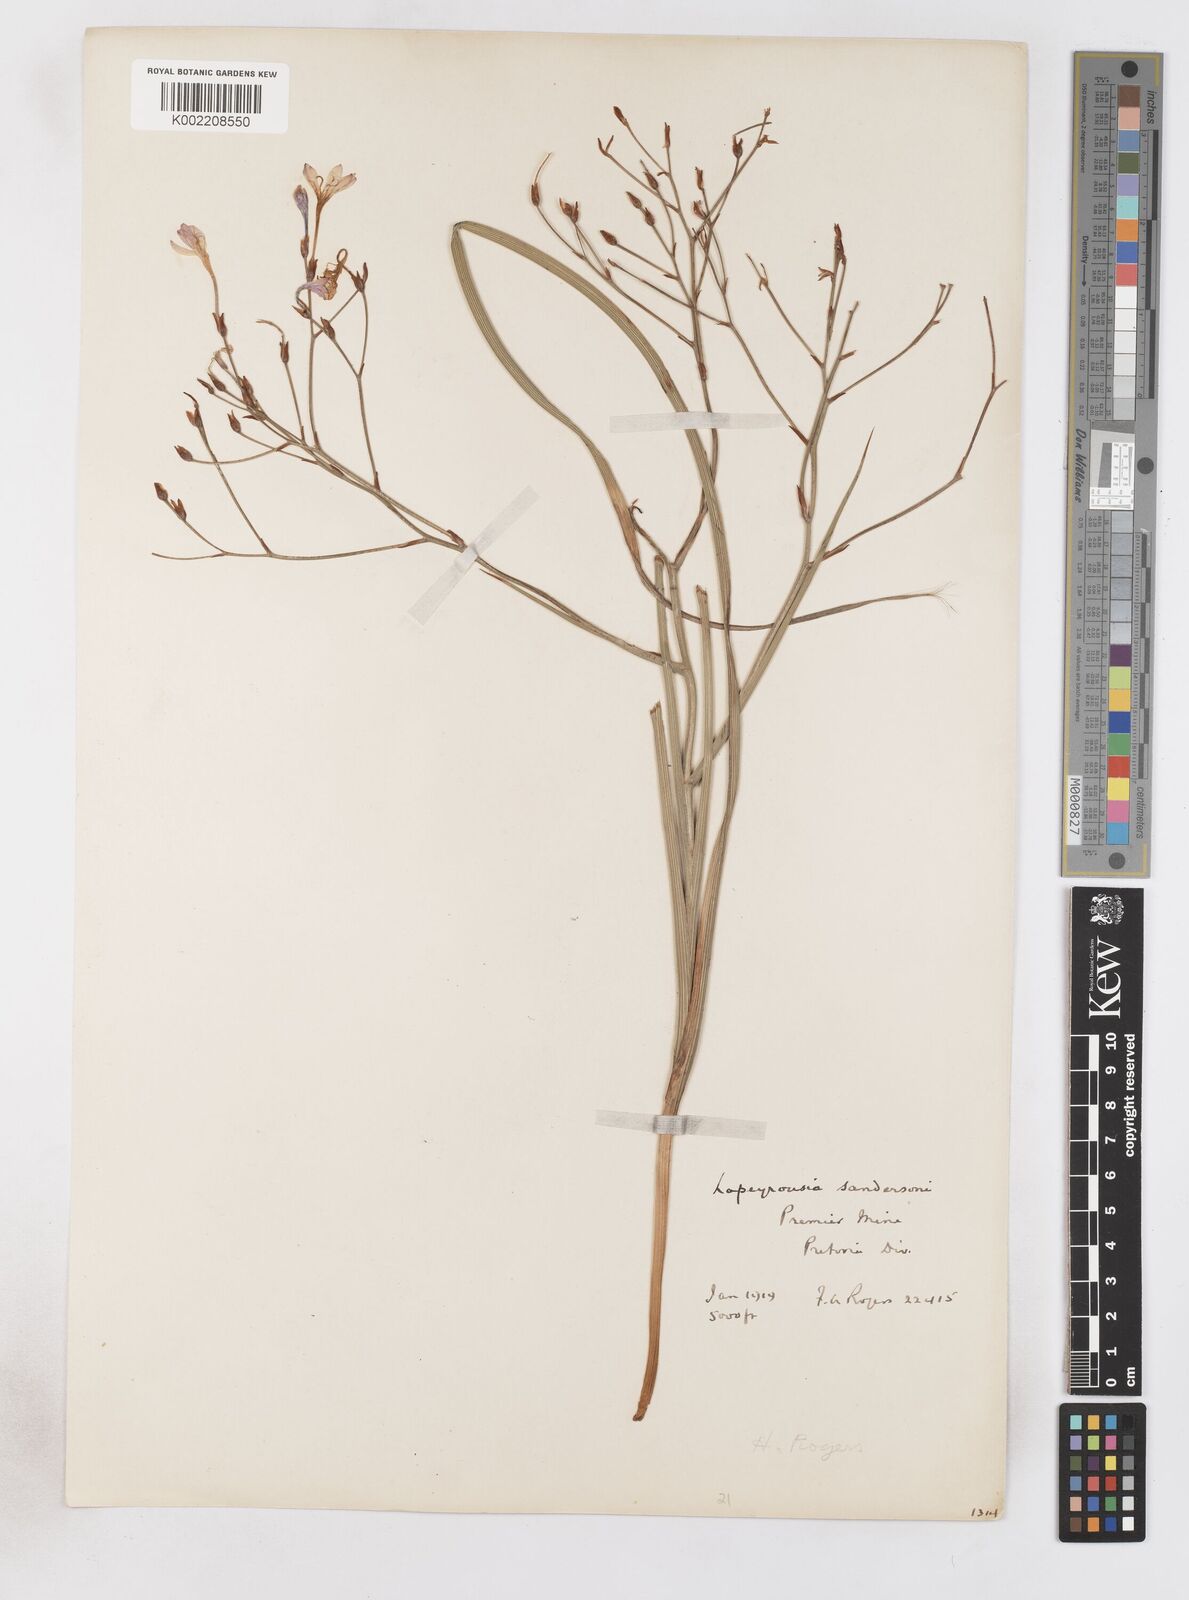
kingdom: Plantae
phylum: Tracheophyta
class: Liliopsida
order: Asparagales
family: Iridaceae
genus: Afrosolen
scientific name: Afrosolen sandersonii
